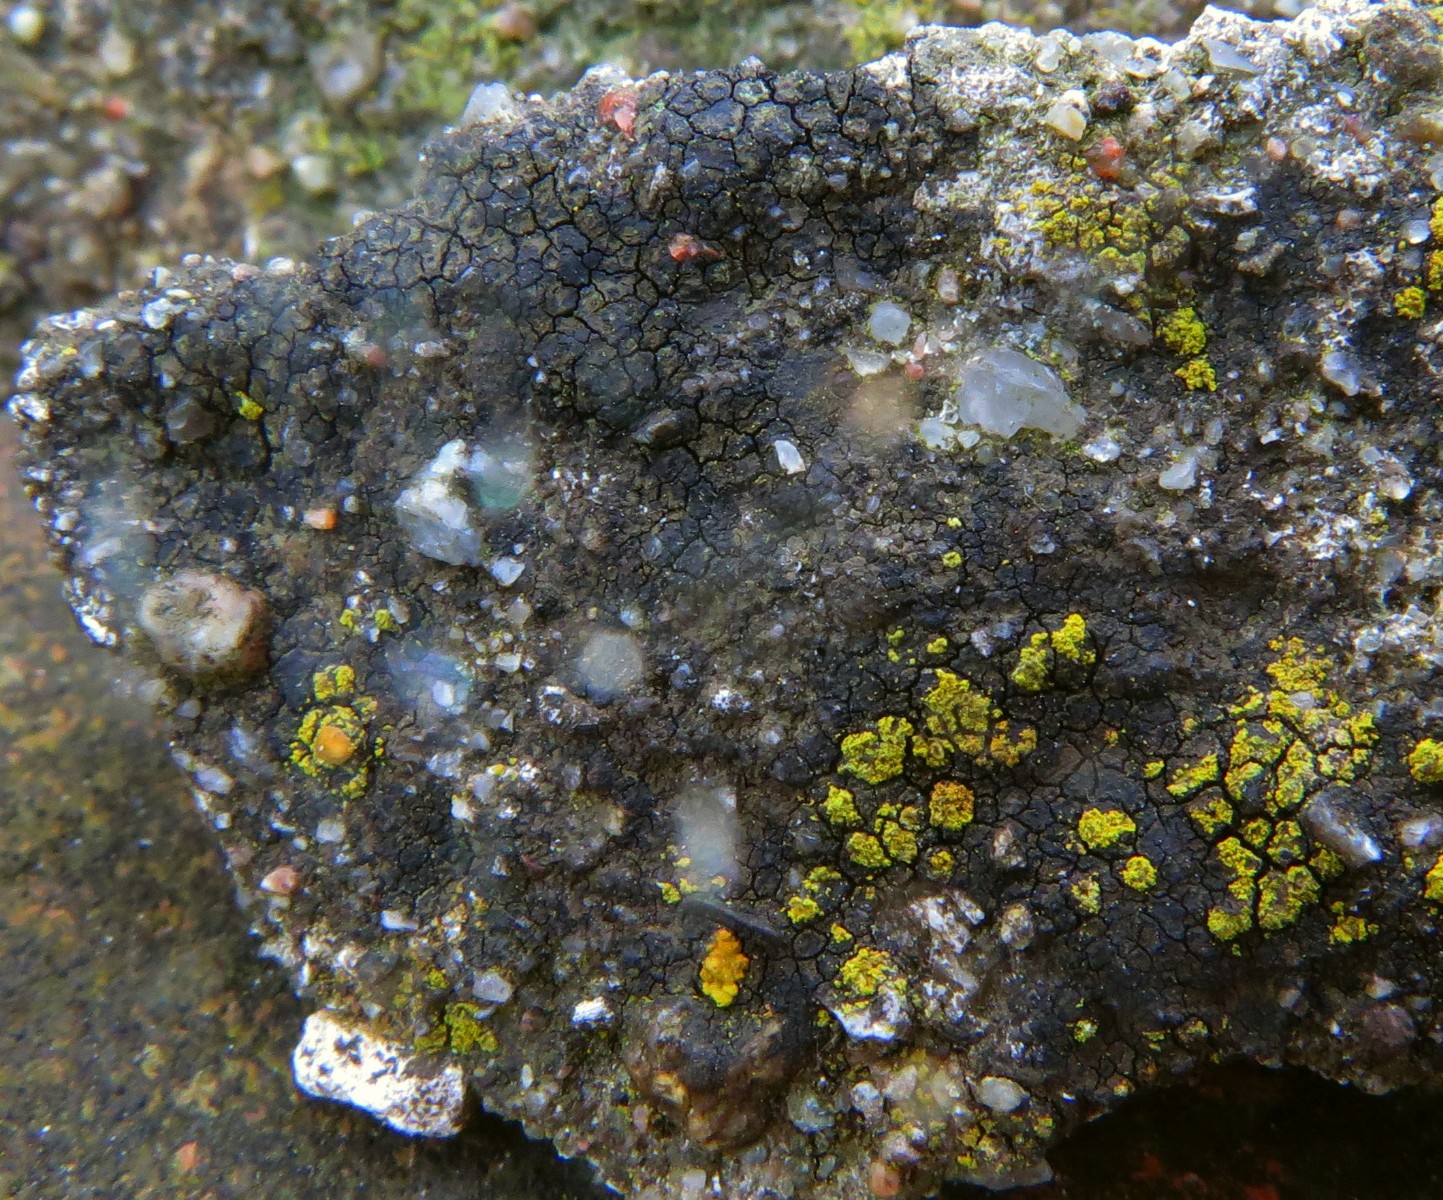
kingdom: Fungi
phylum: Ascomycota
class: Eurotiomycetes
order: Verrucariales
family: Verrucariaceae
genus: Verrucaria
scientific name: Verrucaria nigrescens
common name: sortbrun vortelav
